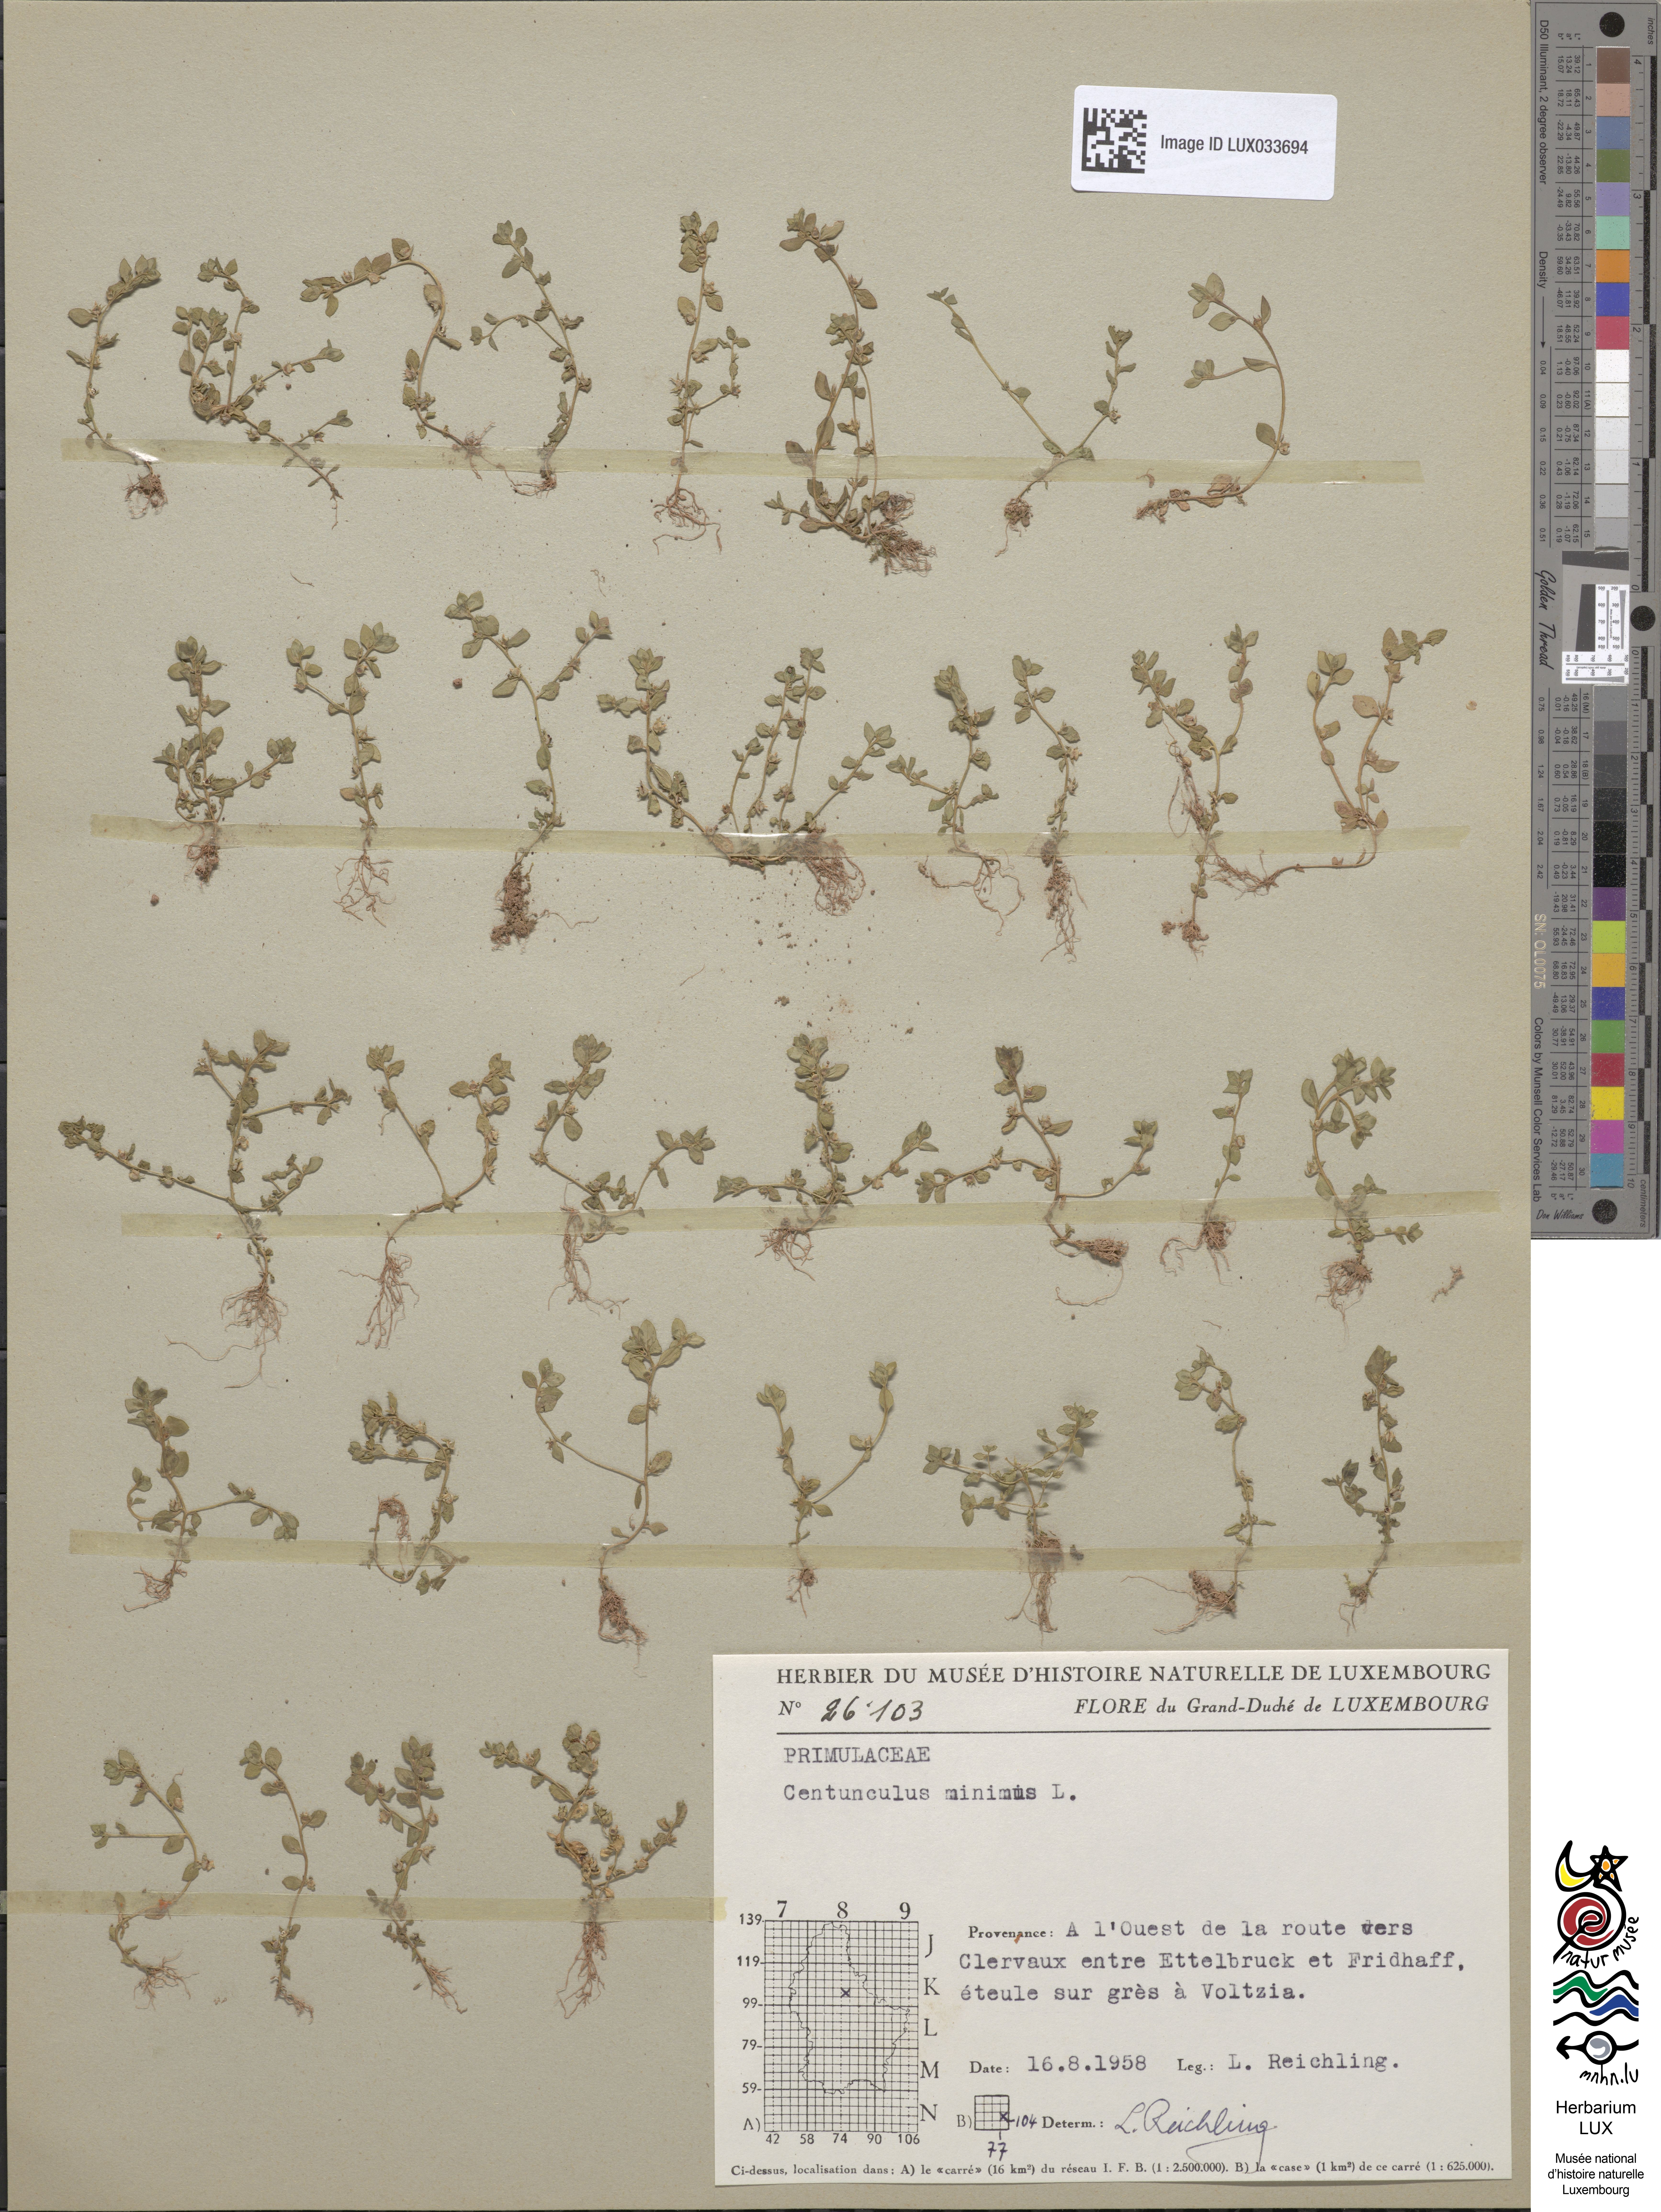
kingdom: Plantae
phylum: Tracheophyta
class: Magnoliopsida
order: Ericales
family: Primulaceae
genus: Lysimachia
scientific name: Lysimachia minima
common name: Chaffweed
